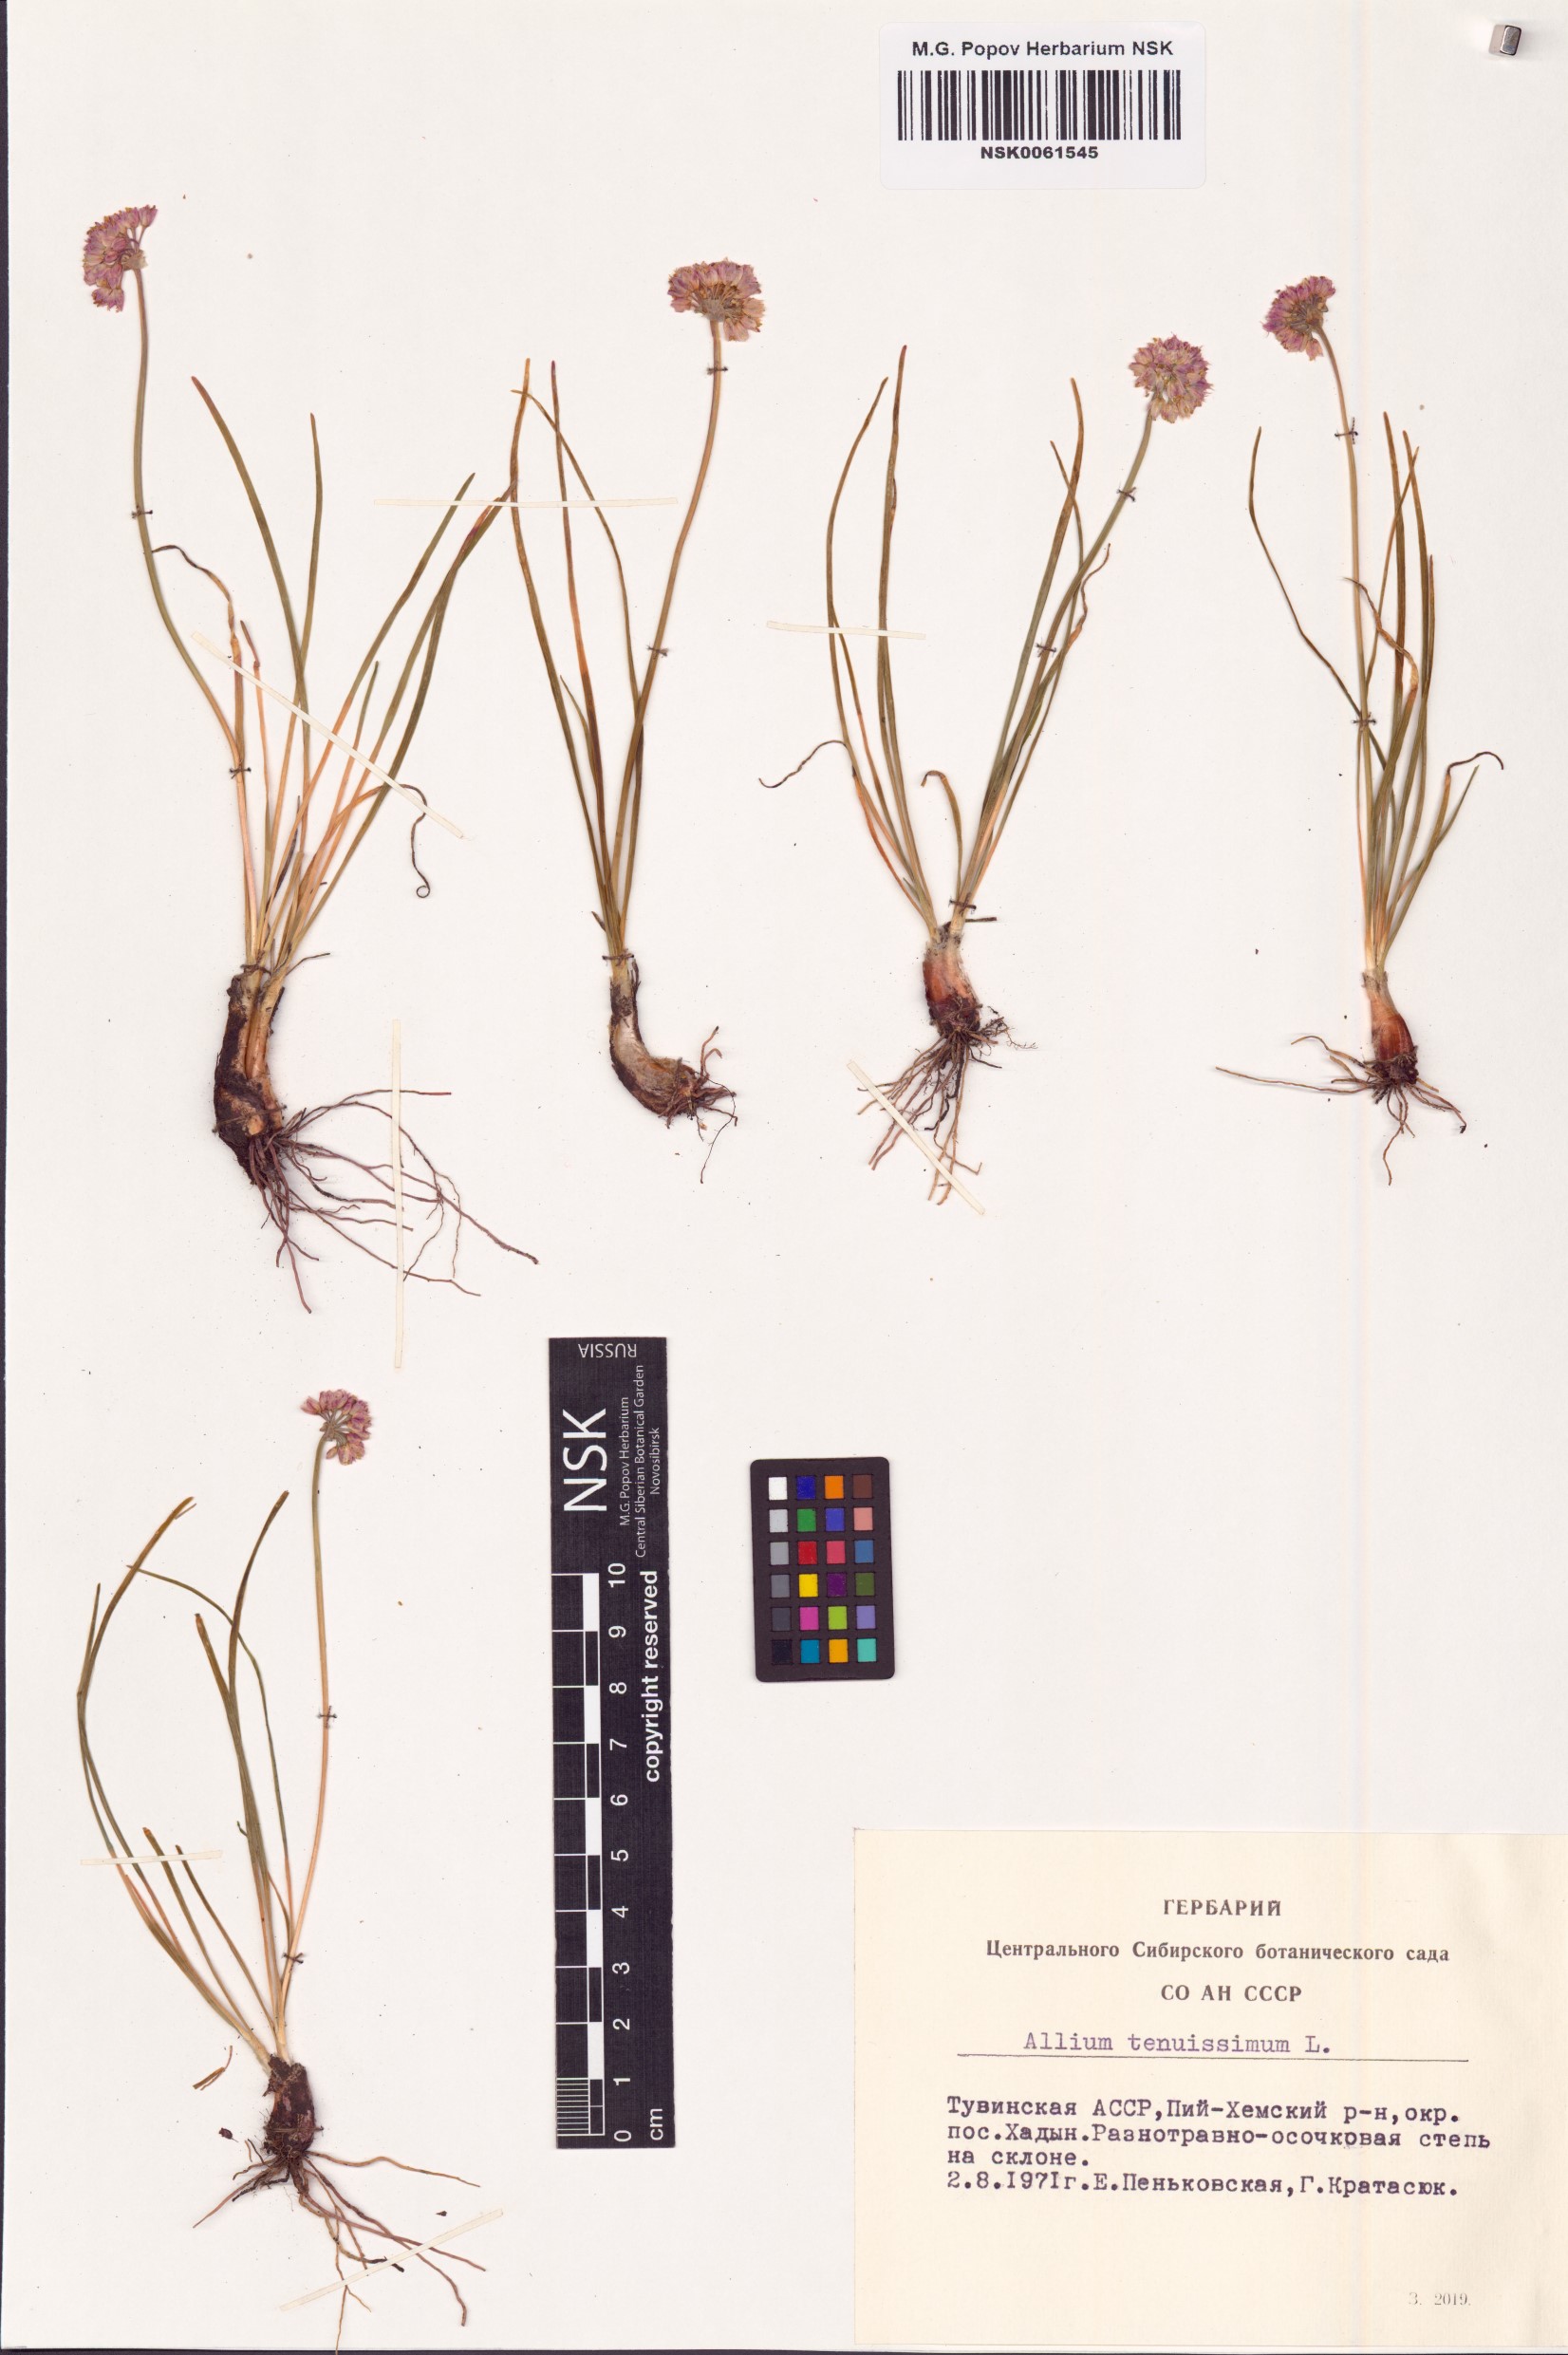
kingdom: Plantae
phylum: Tracheophyta
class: Liliopsida
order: Asparagales
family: Amaryllidaceae
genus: Allium
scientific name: Allium tenuissimum
